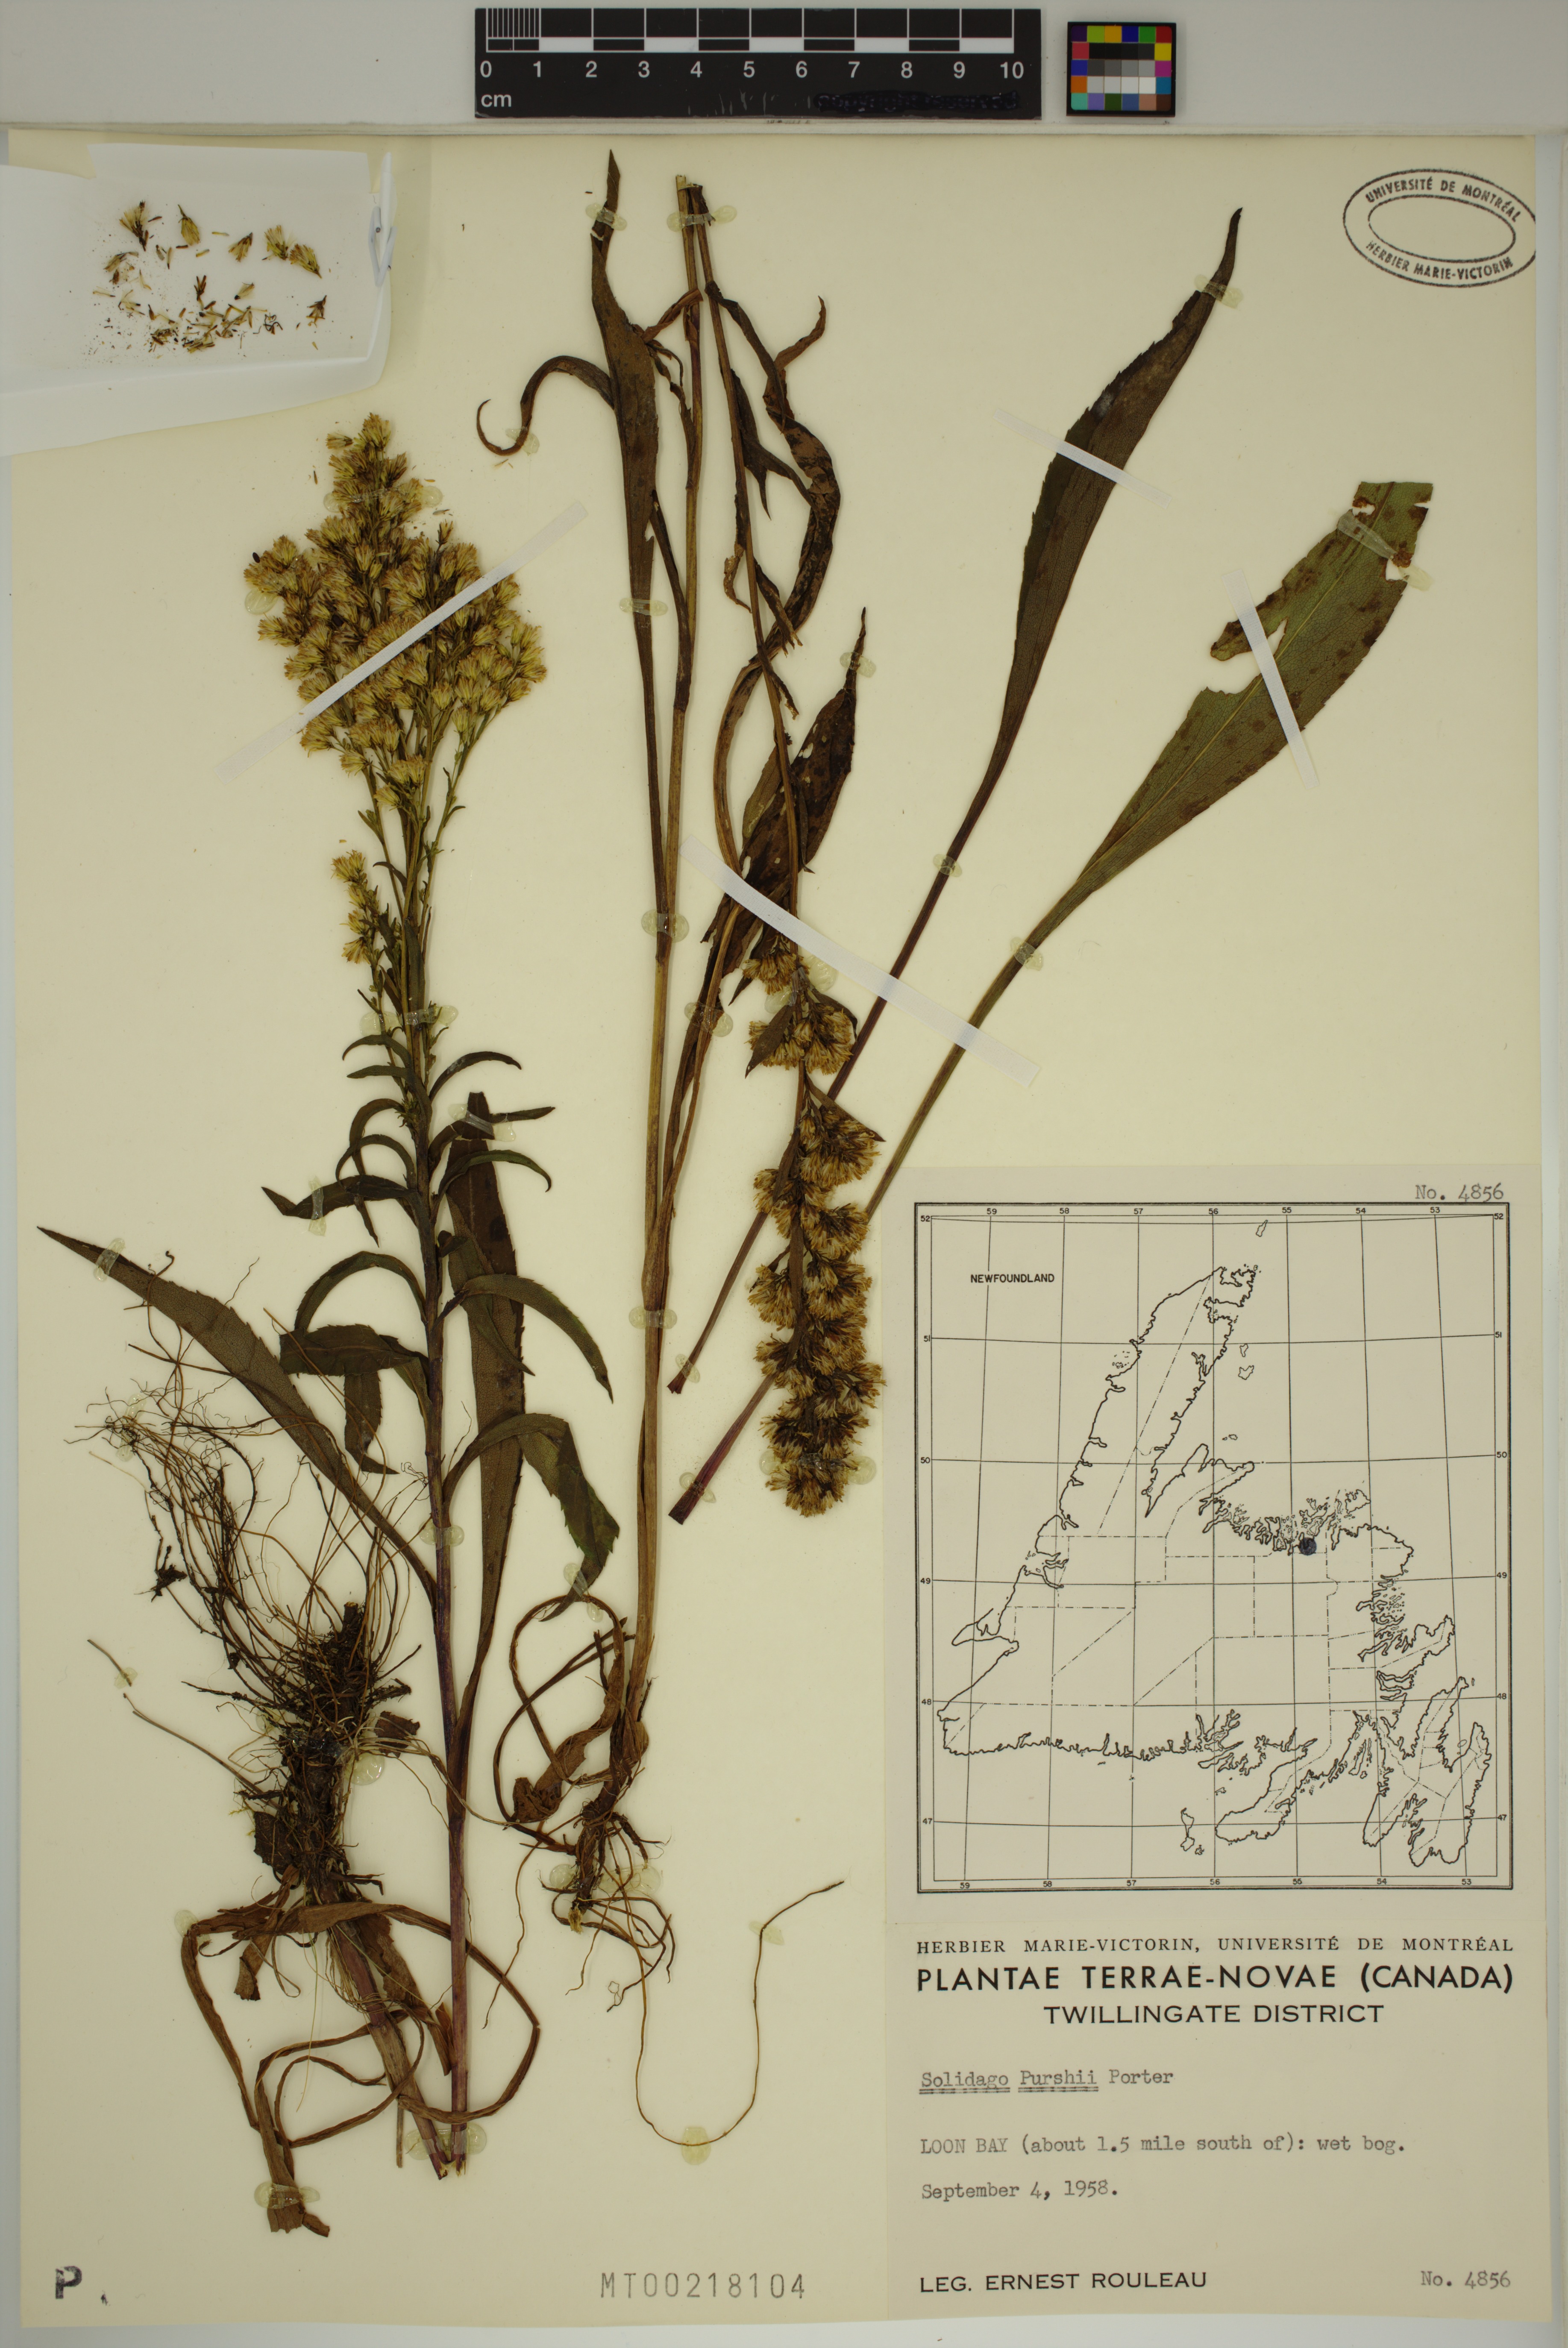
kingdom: Plantae
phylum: Tracheophyta
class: Magnoliopsida
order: Asterales
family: Asteraceae
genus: Solidago
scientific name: Solidago uliginosa
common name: Bog goldenrod
